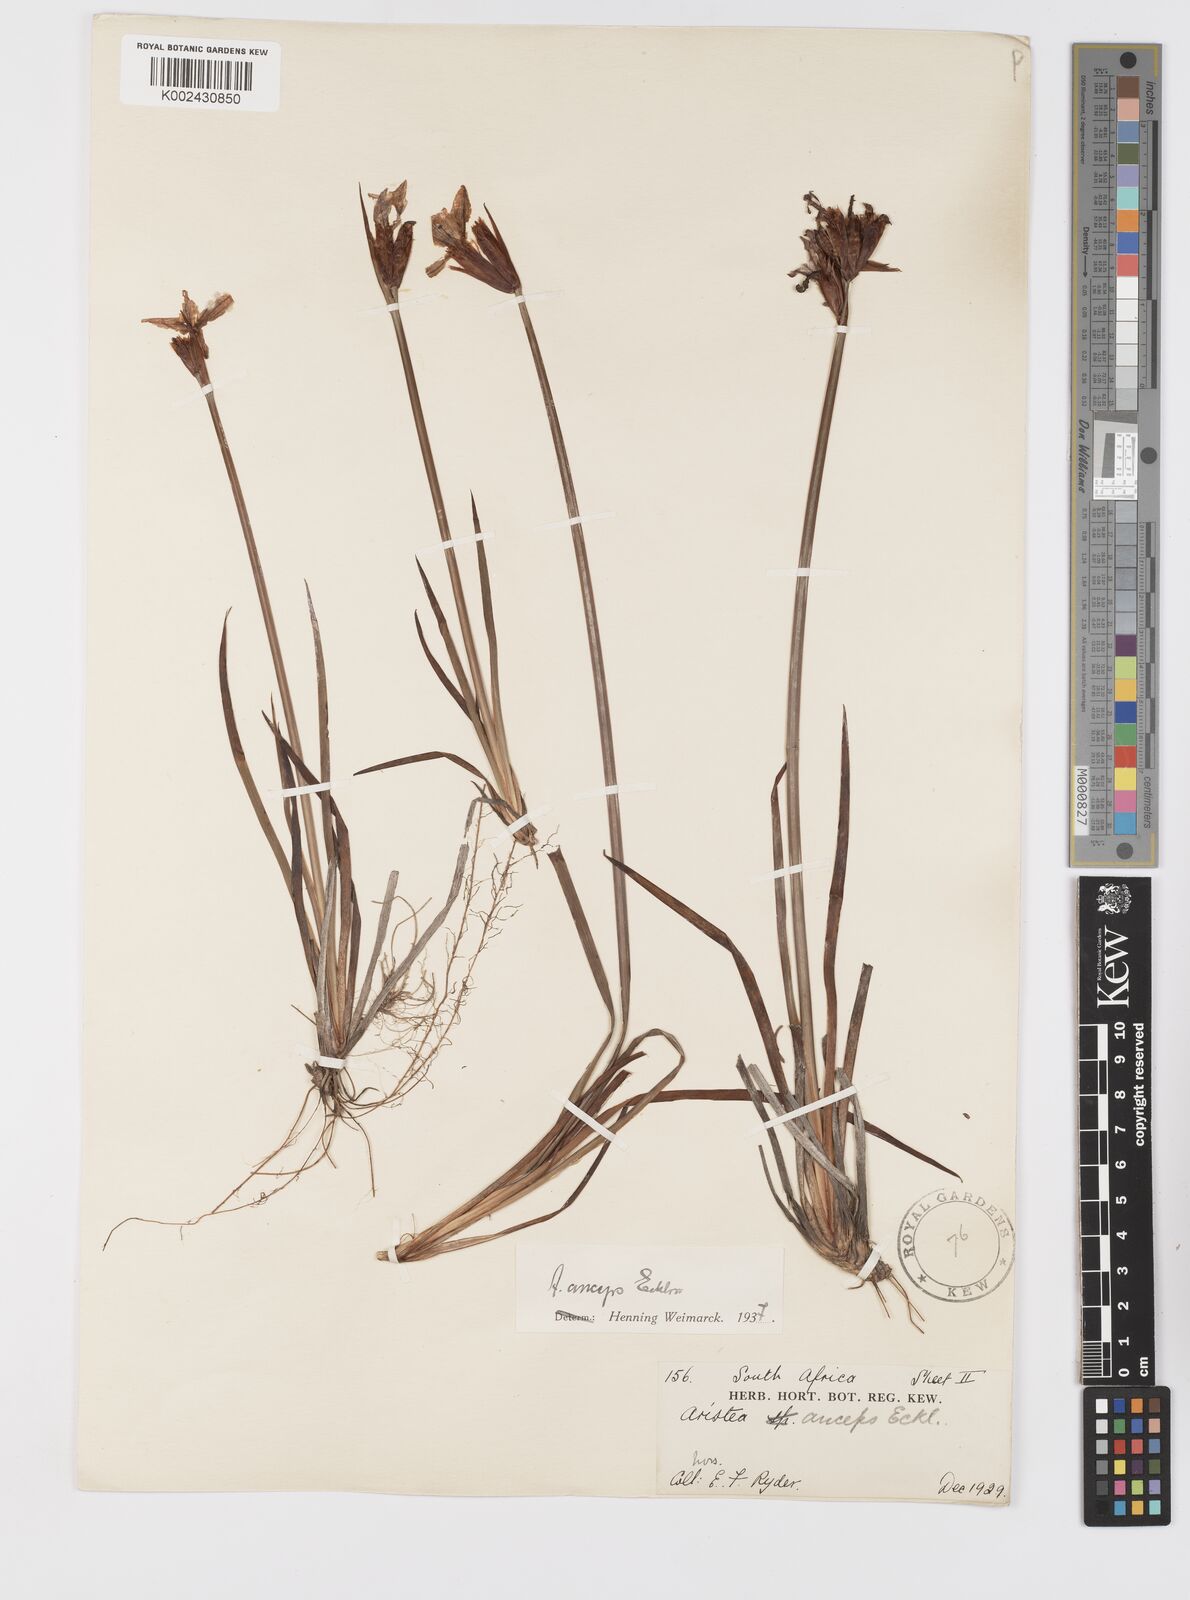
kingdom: Plantae
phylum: Tracheophyta
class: Liliopsida
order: Asparagales
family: Iridaceae
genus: Aristea
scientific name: Aristea anceps
